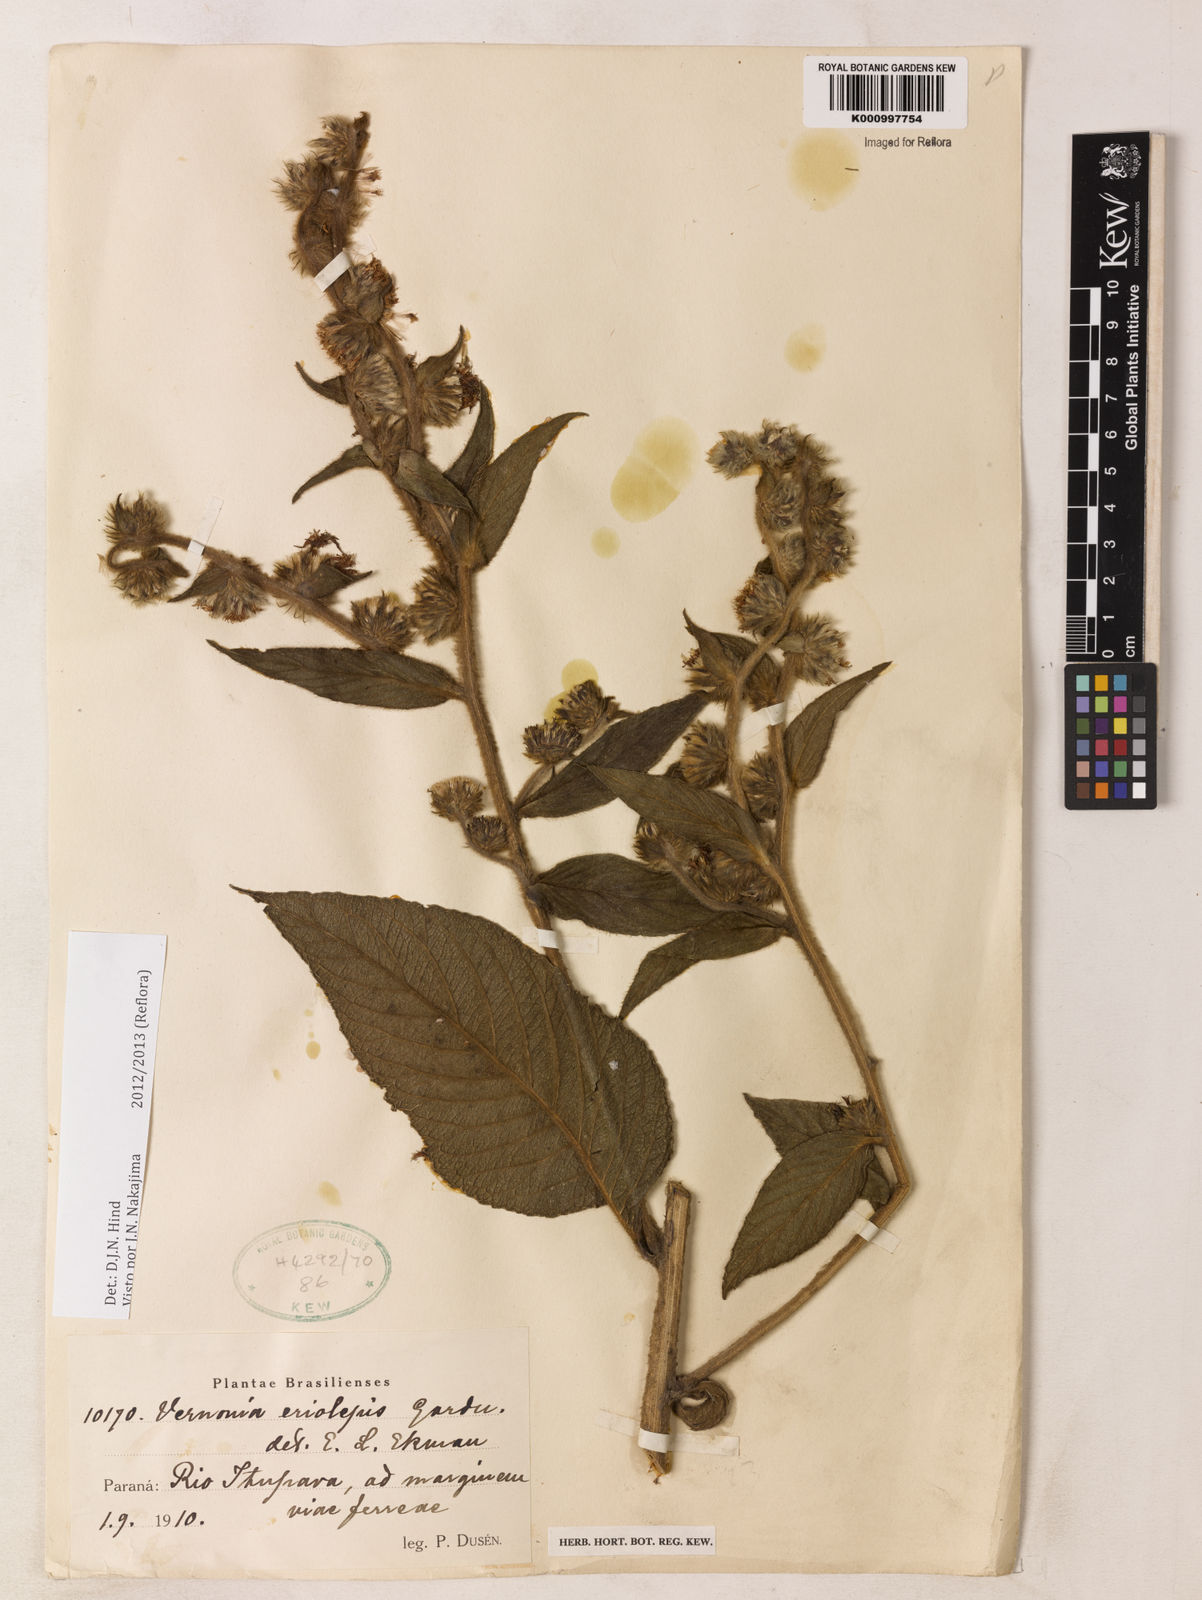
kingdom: Plantae
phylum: Tracheophyta
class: Magnoliopsida
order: Asterales
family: Asteraceae
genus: Lepidaploa
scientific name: Lepidaploa eriolepis
